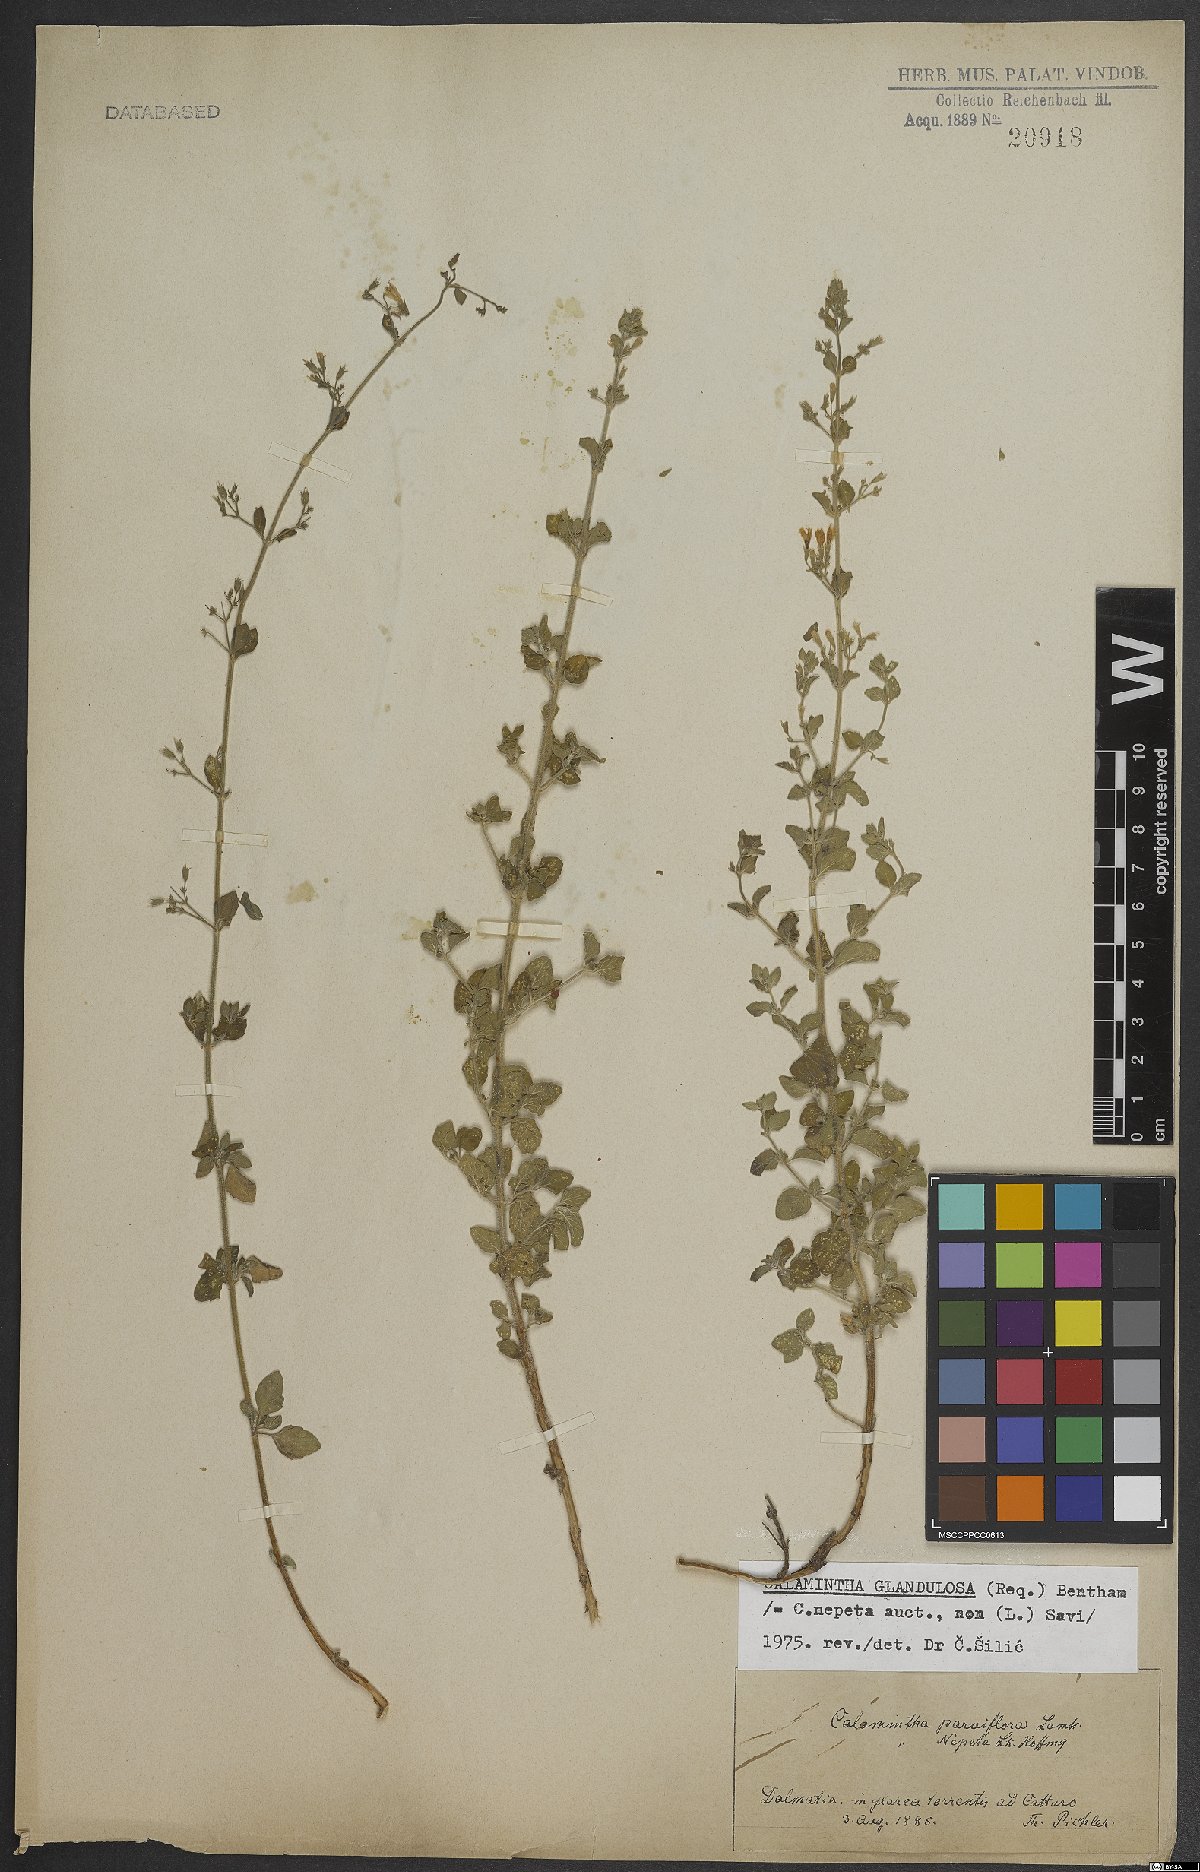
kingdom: Plantae
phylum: Tracheophyta
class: Magnoliopsida
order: Lamiales
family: Lamiaceae
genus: Clinopodium
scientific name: Clinopodium nepeta
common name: Lesser calamint
